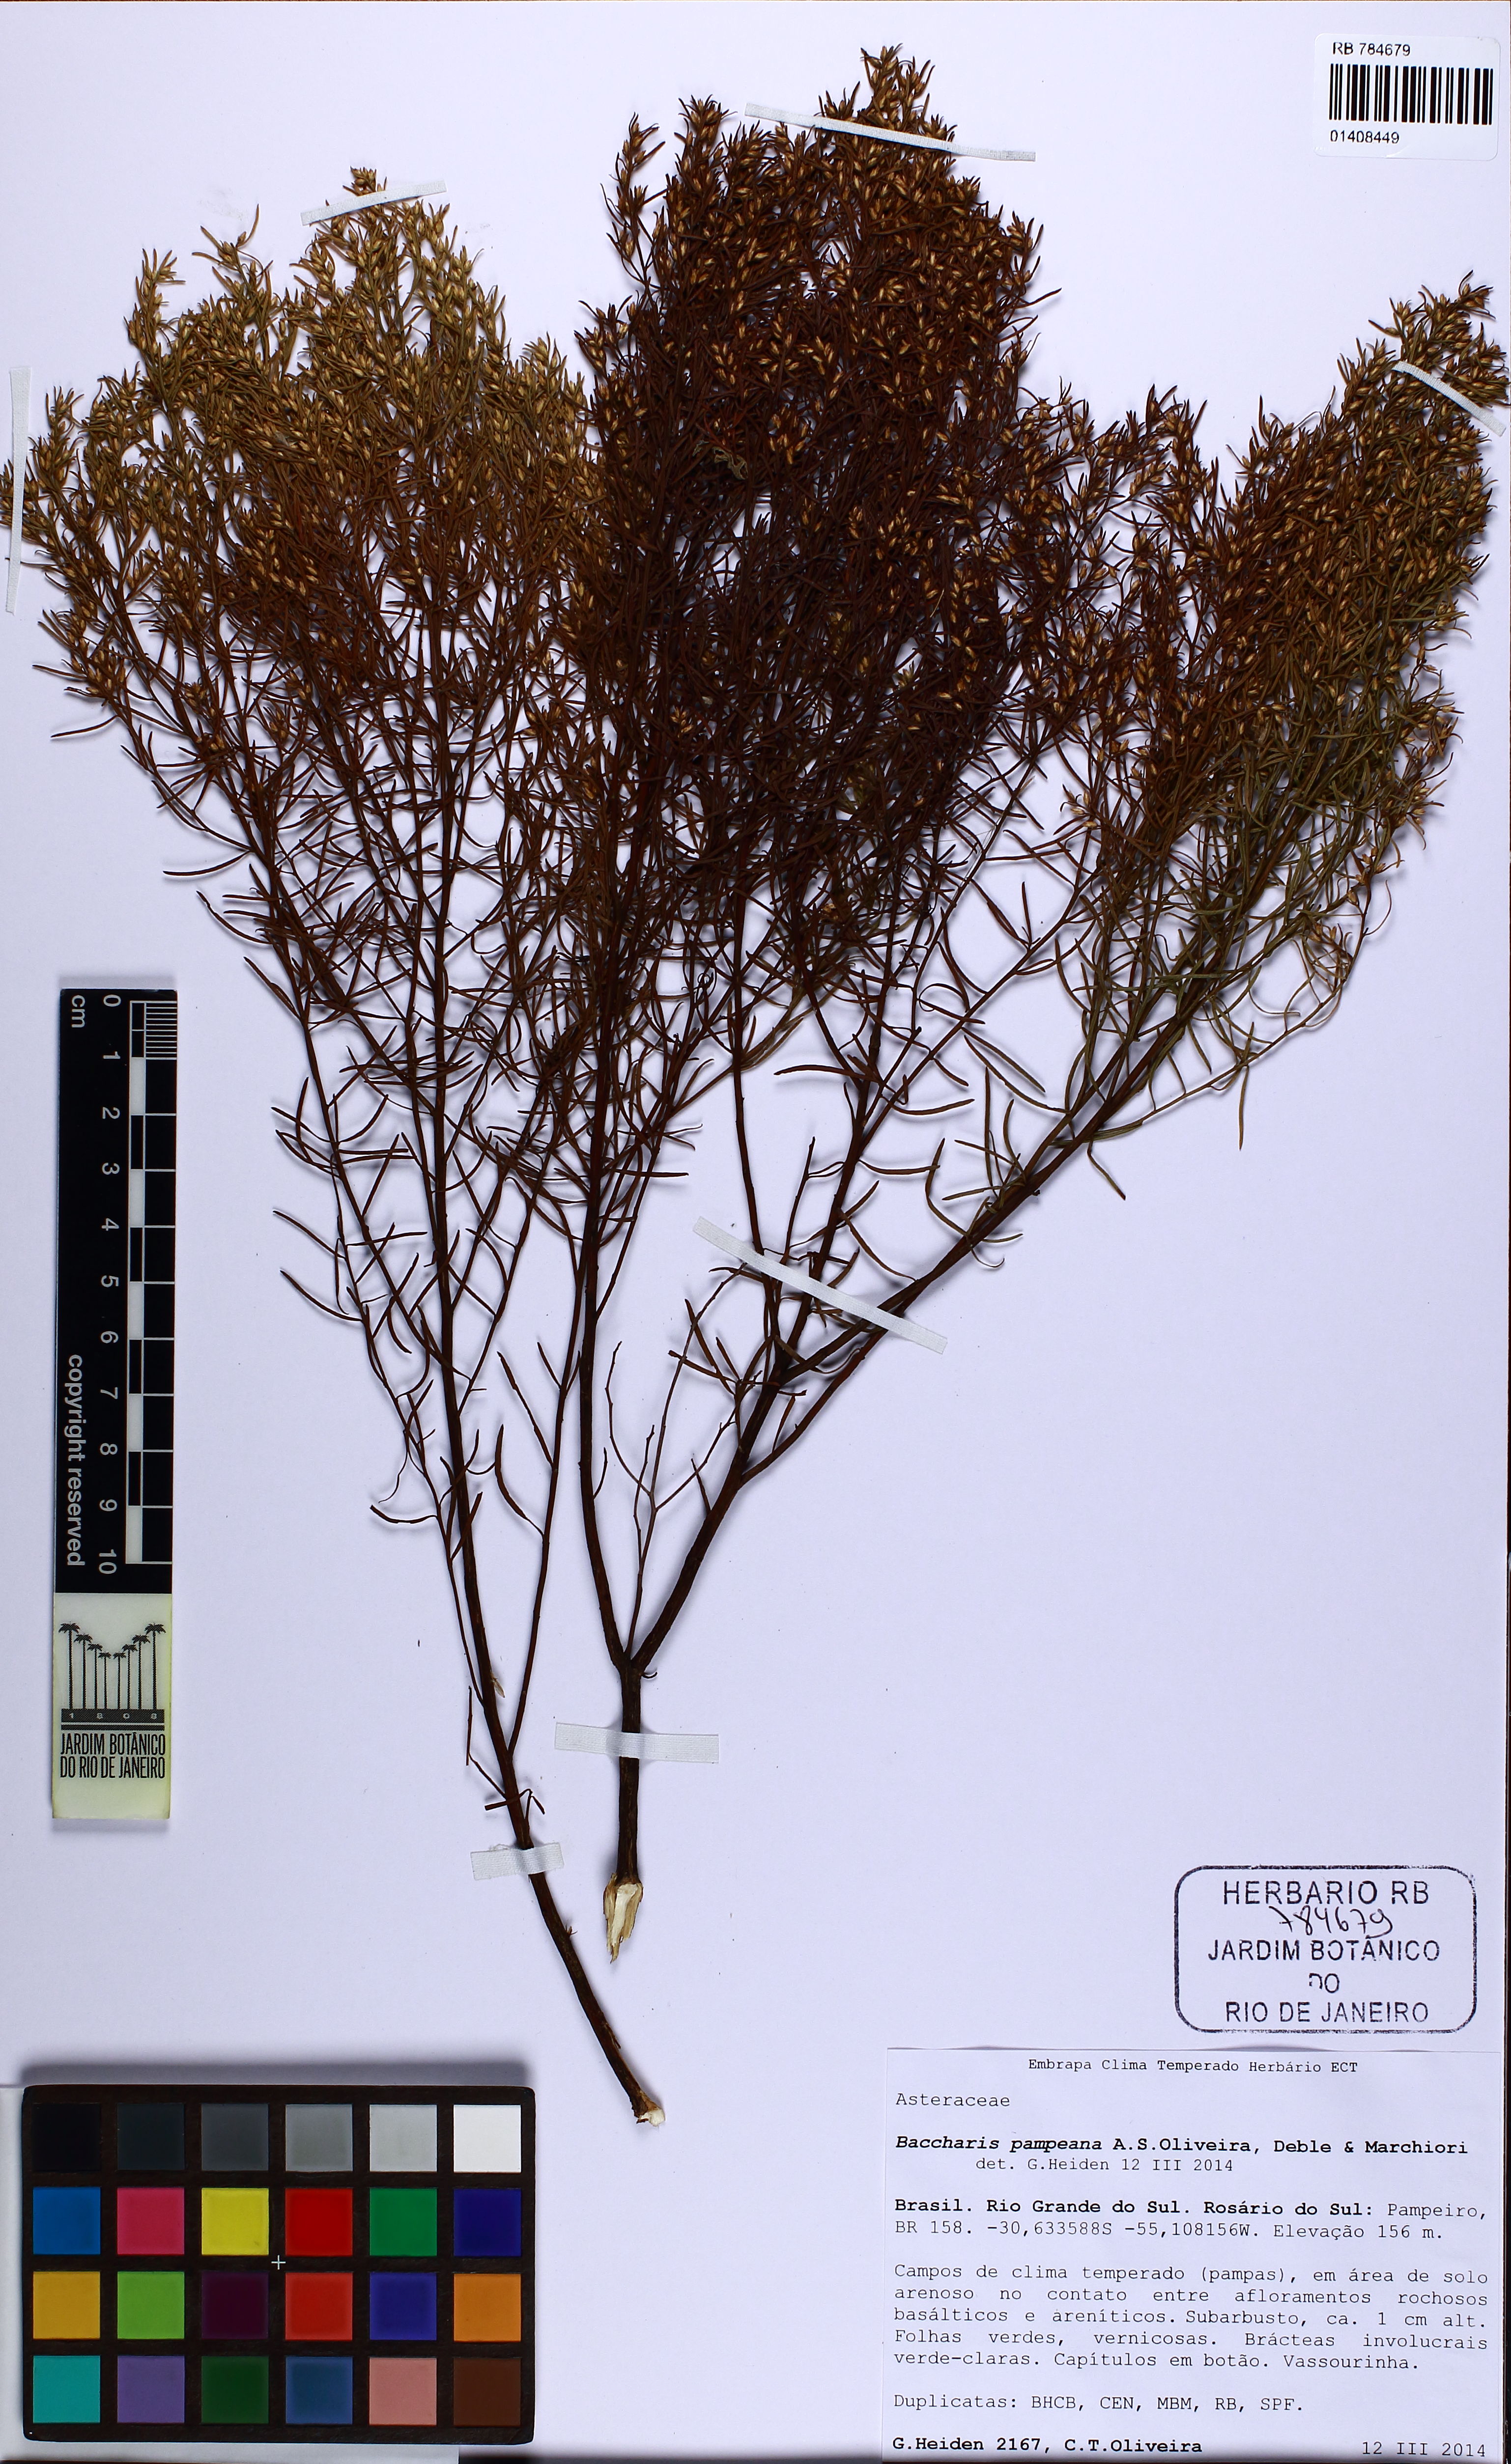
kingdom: Plantae
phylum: Tracheophyta
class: Magnoliopsida
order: Asterales
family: Asteraceae
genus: Baccharis
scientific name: Baccharis pampeana
